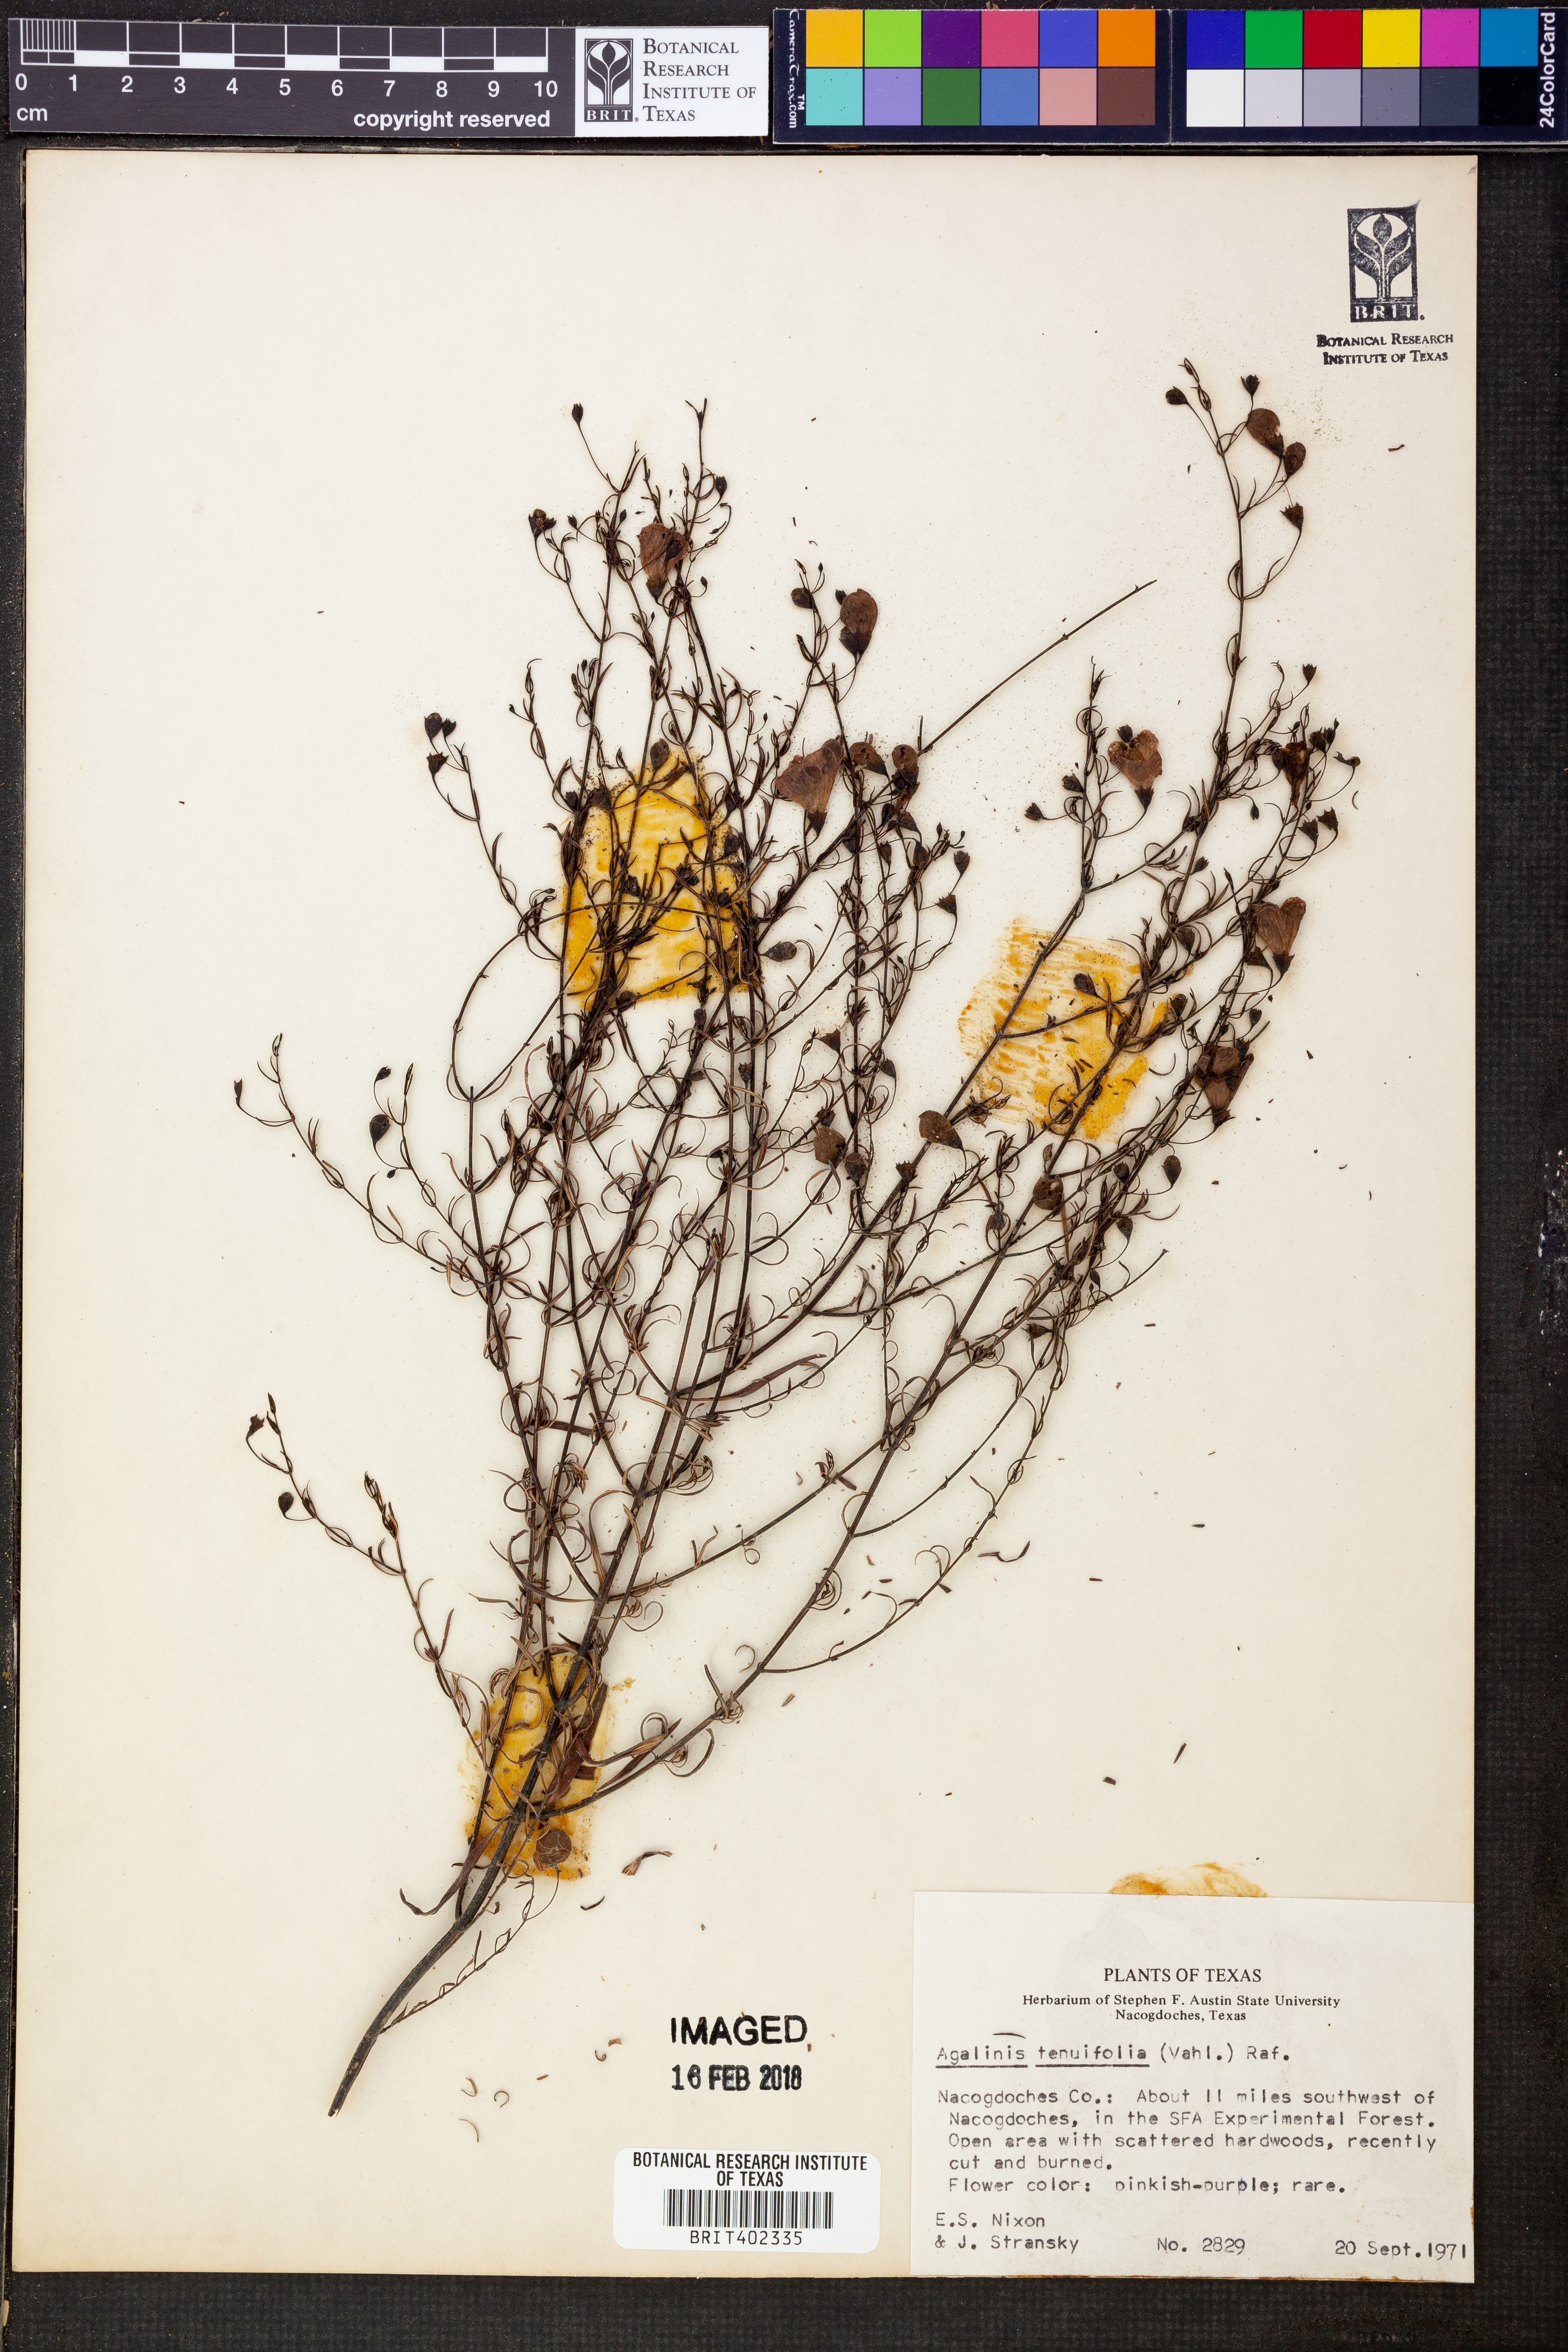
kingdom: Plantae
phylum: Tracheophyta
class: Magnoliopsida
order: Lamiales
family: Orobanchaceae
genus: Agalinis
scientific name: Agalinis tenuifolia
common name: Slender agalinis
